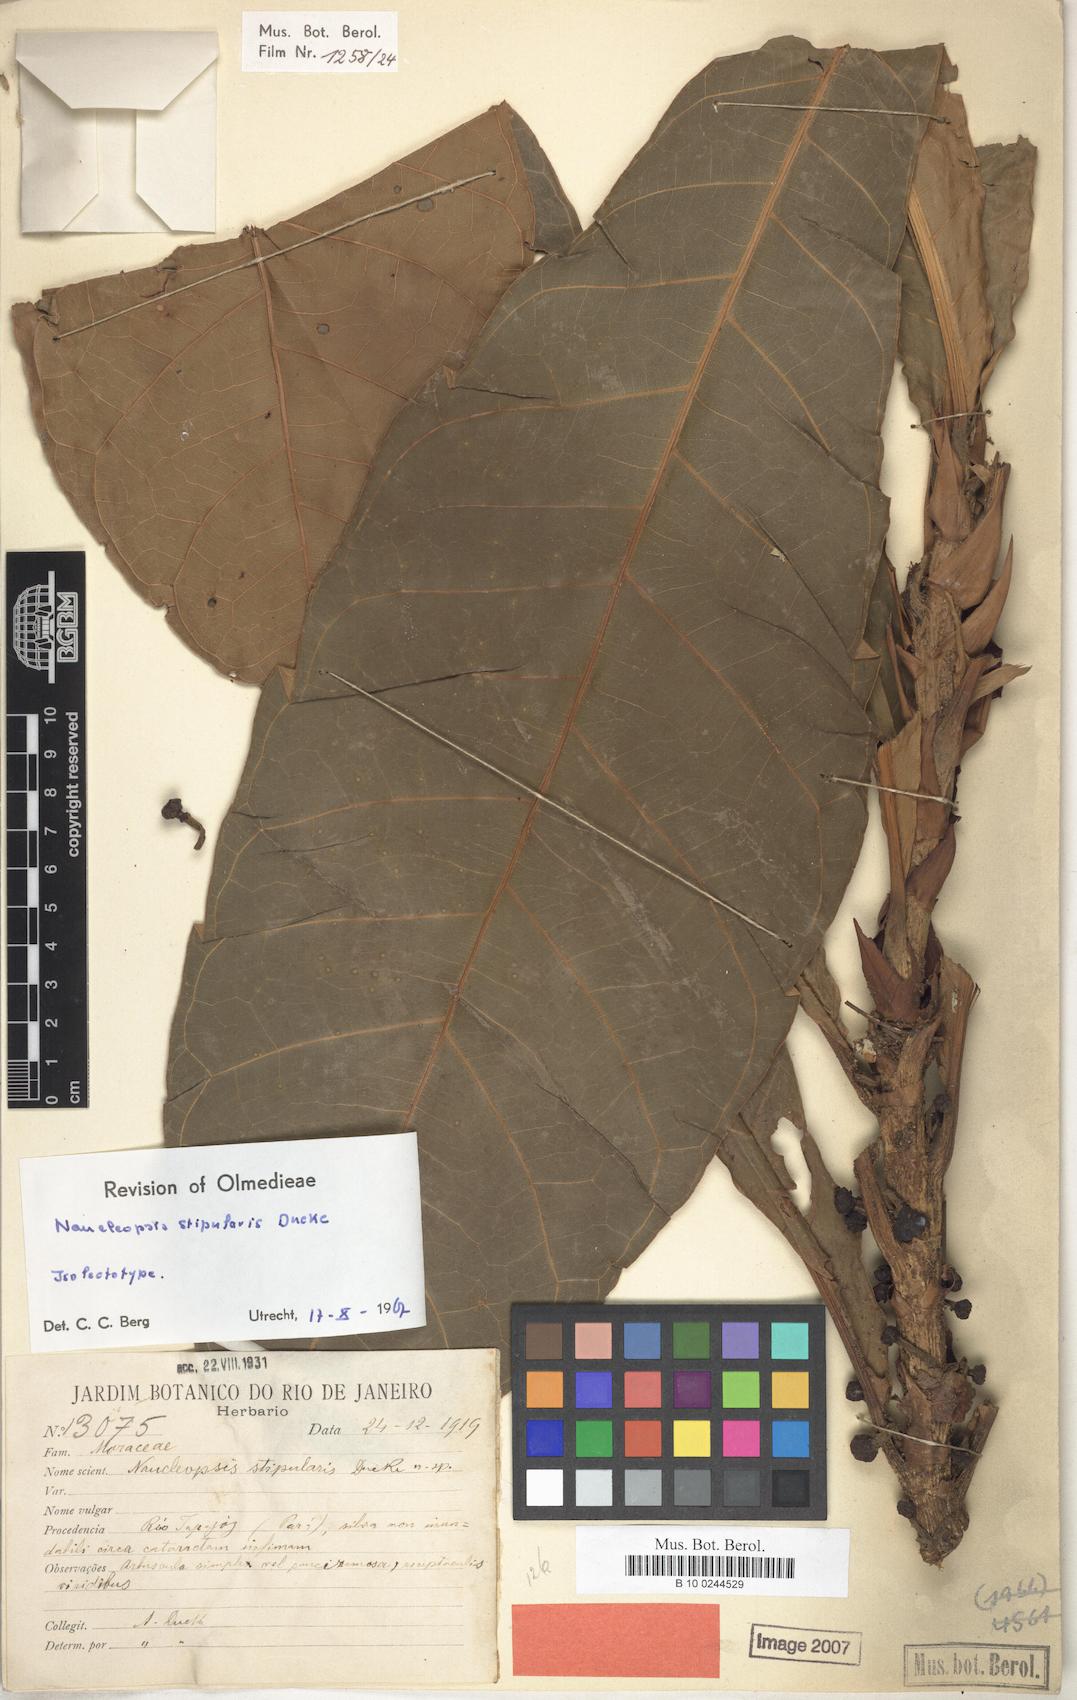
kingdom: Plantae
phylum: Tracheophyta
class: Magnoliopsida
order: Rosales
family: Moraceae
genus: Naucleopsis
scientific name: Naucleopsis stipularis
